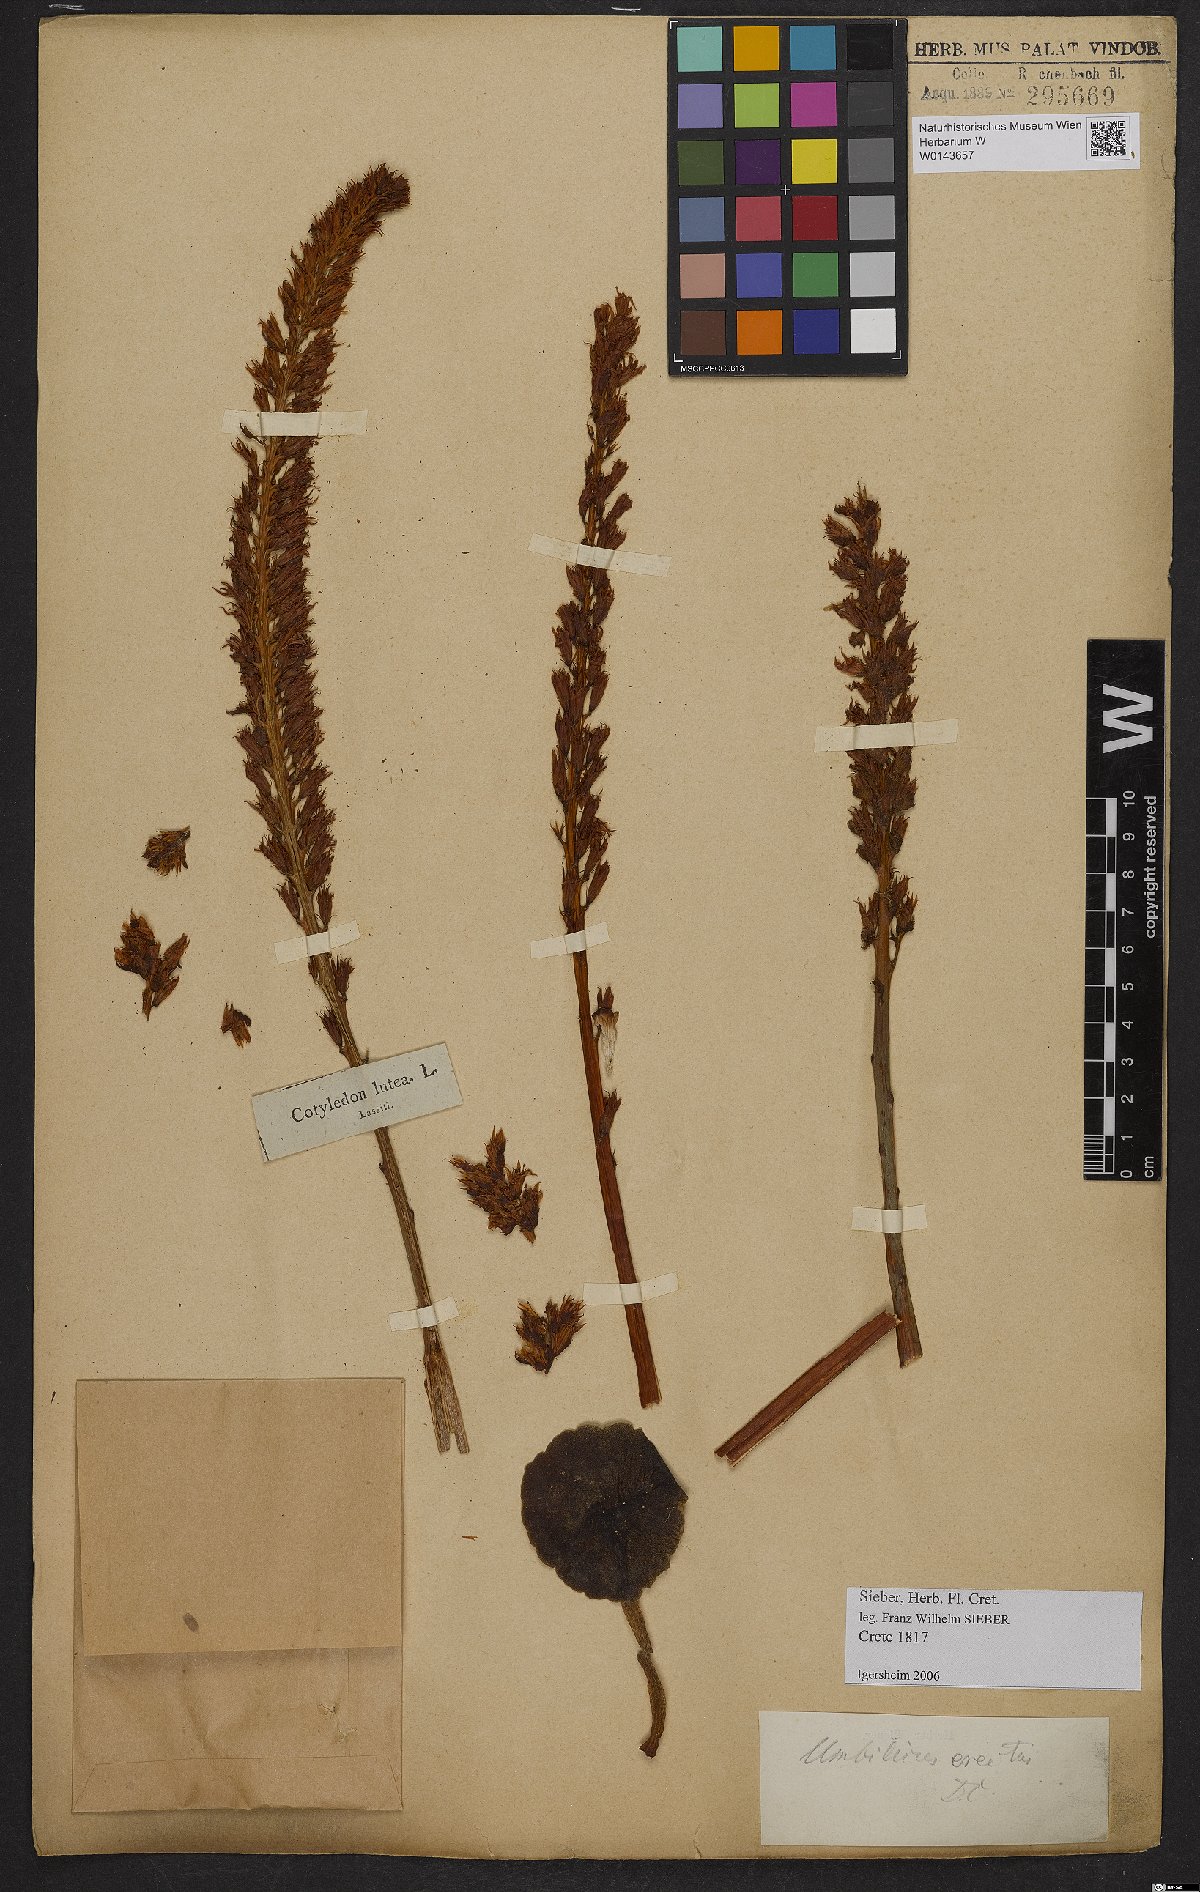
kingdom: Plantae
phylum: Tracheophyta
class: Magnoliopsida
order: Saxifragales
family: Crassulaceae
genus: Umbilicus
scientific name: Umbilicus luteus
